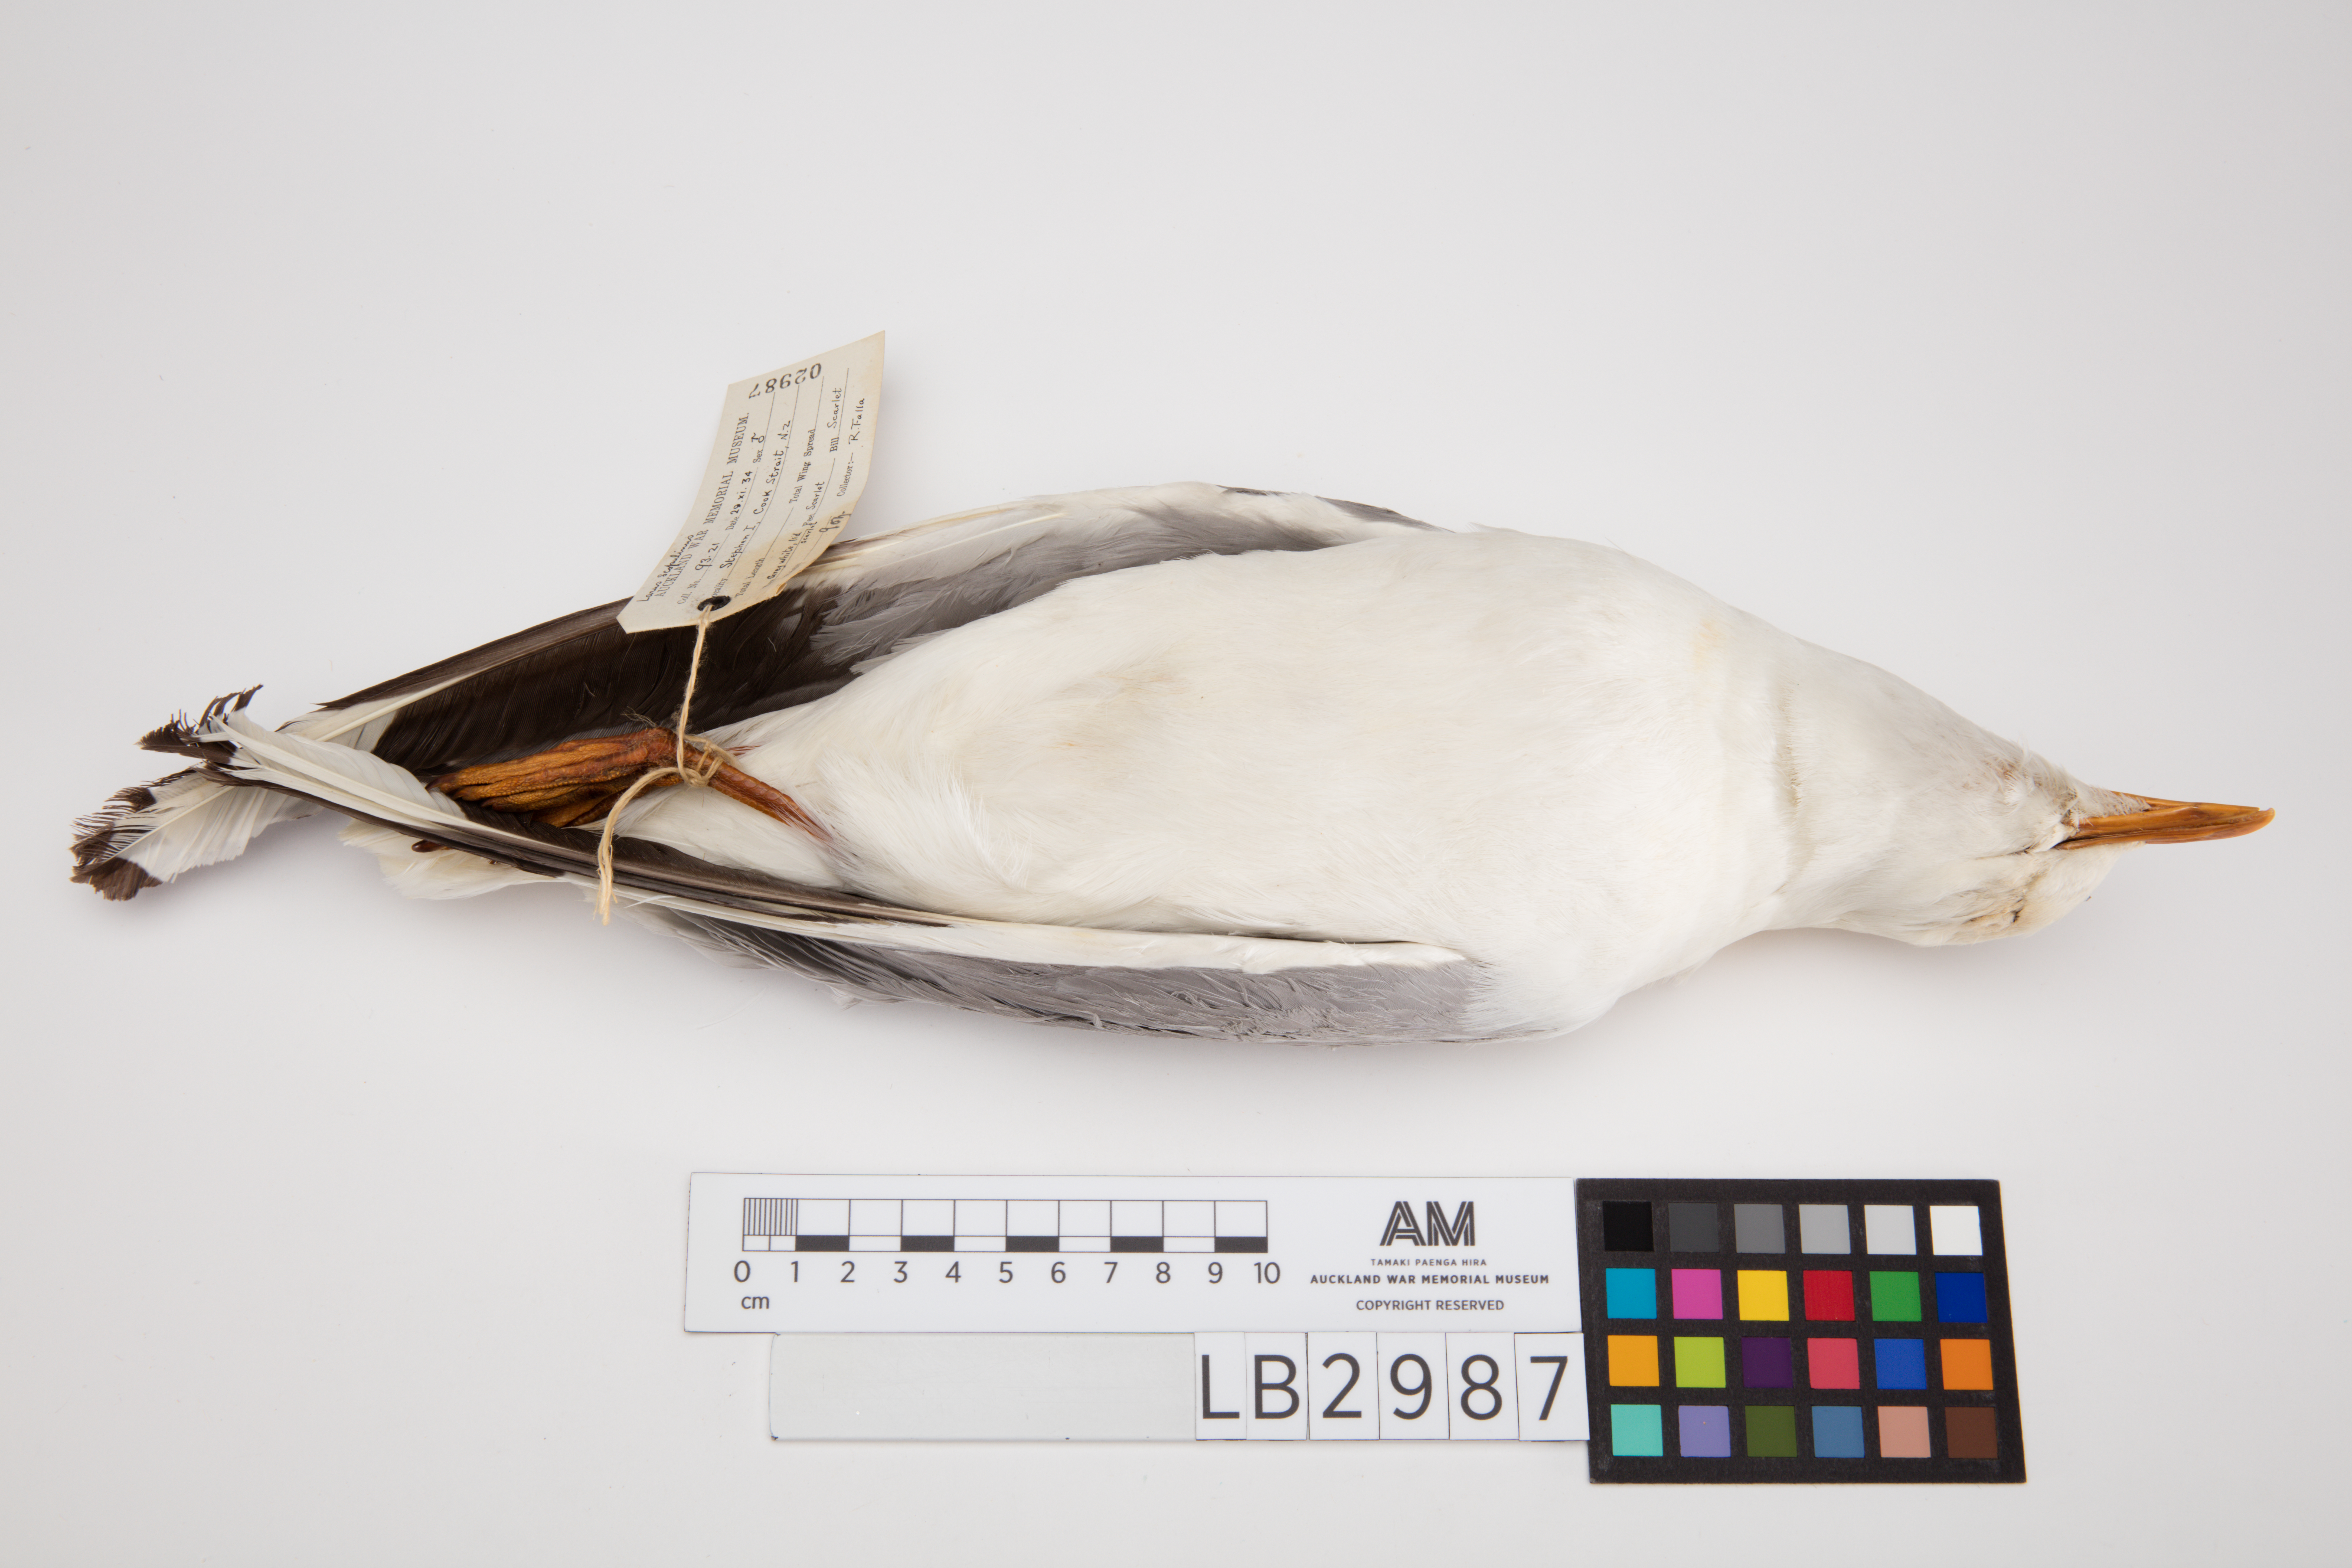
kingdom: Animalia
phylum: Chordata
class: Aves
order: Charadriiformes
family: Laridae
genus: Chroicocephalus
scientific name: Chroicocephalus novaehollandiae
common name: Silver gull
